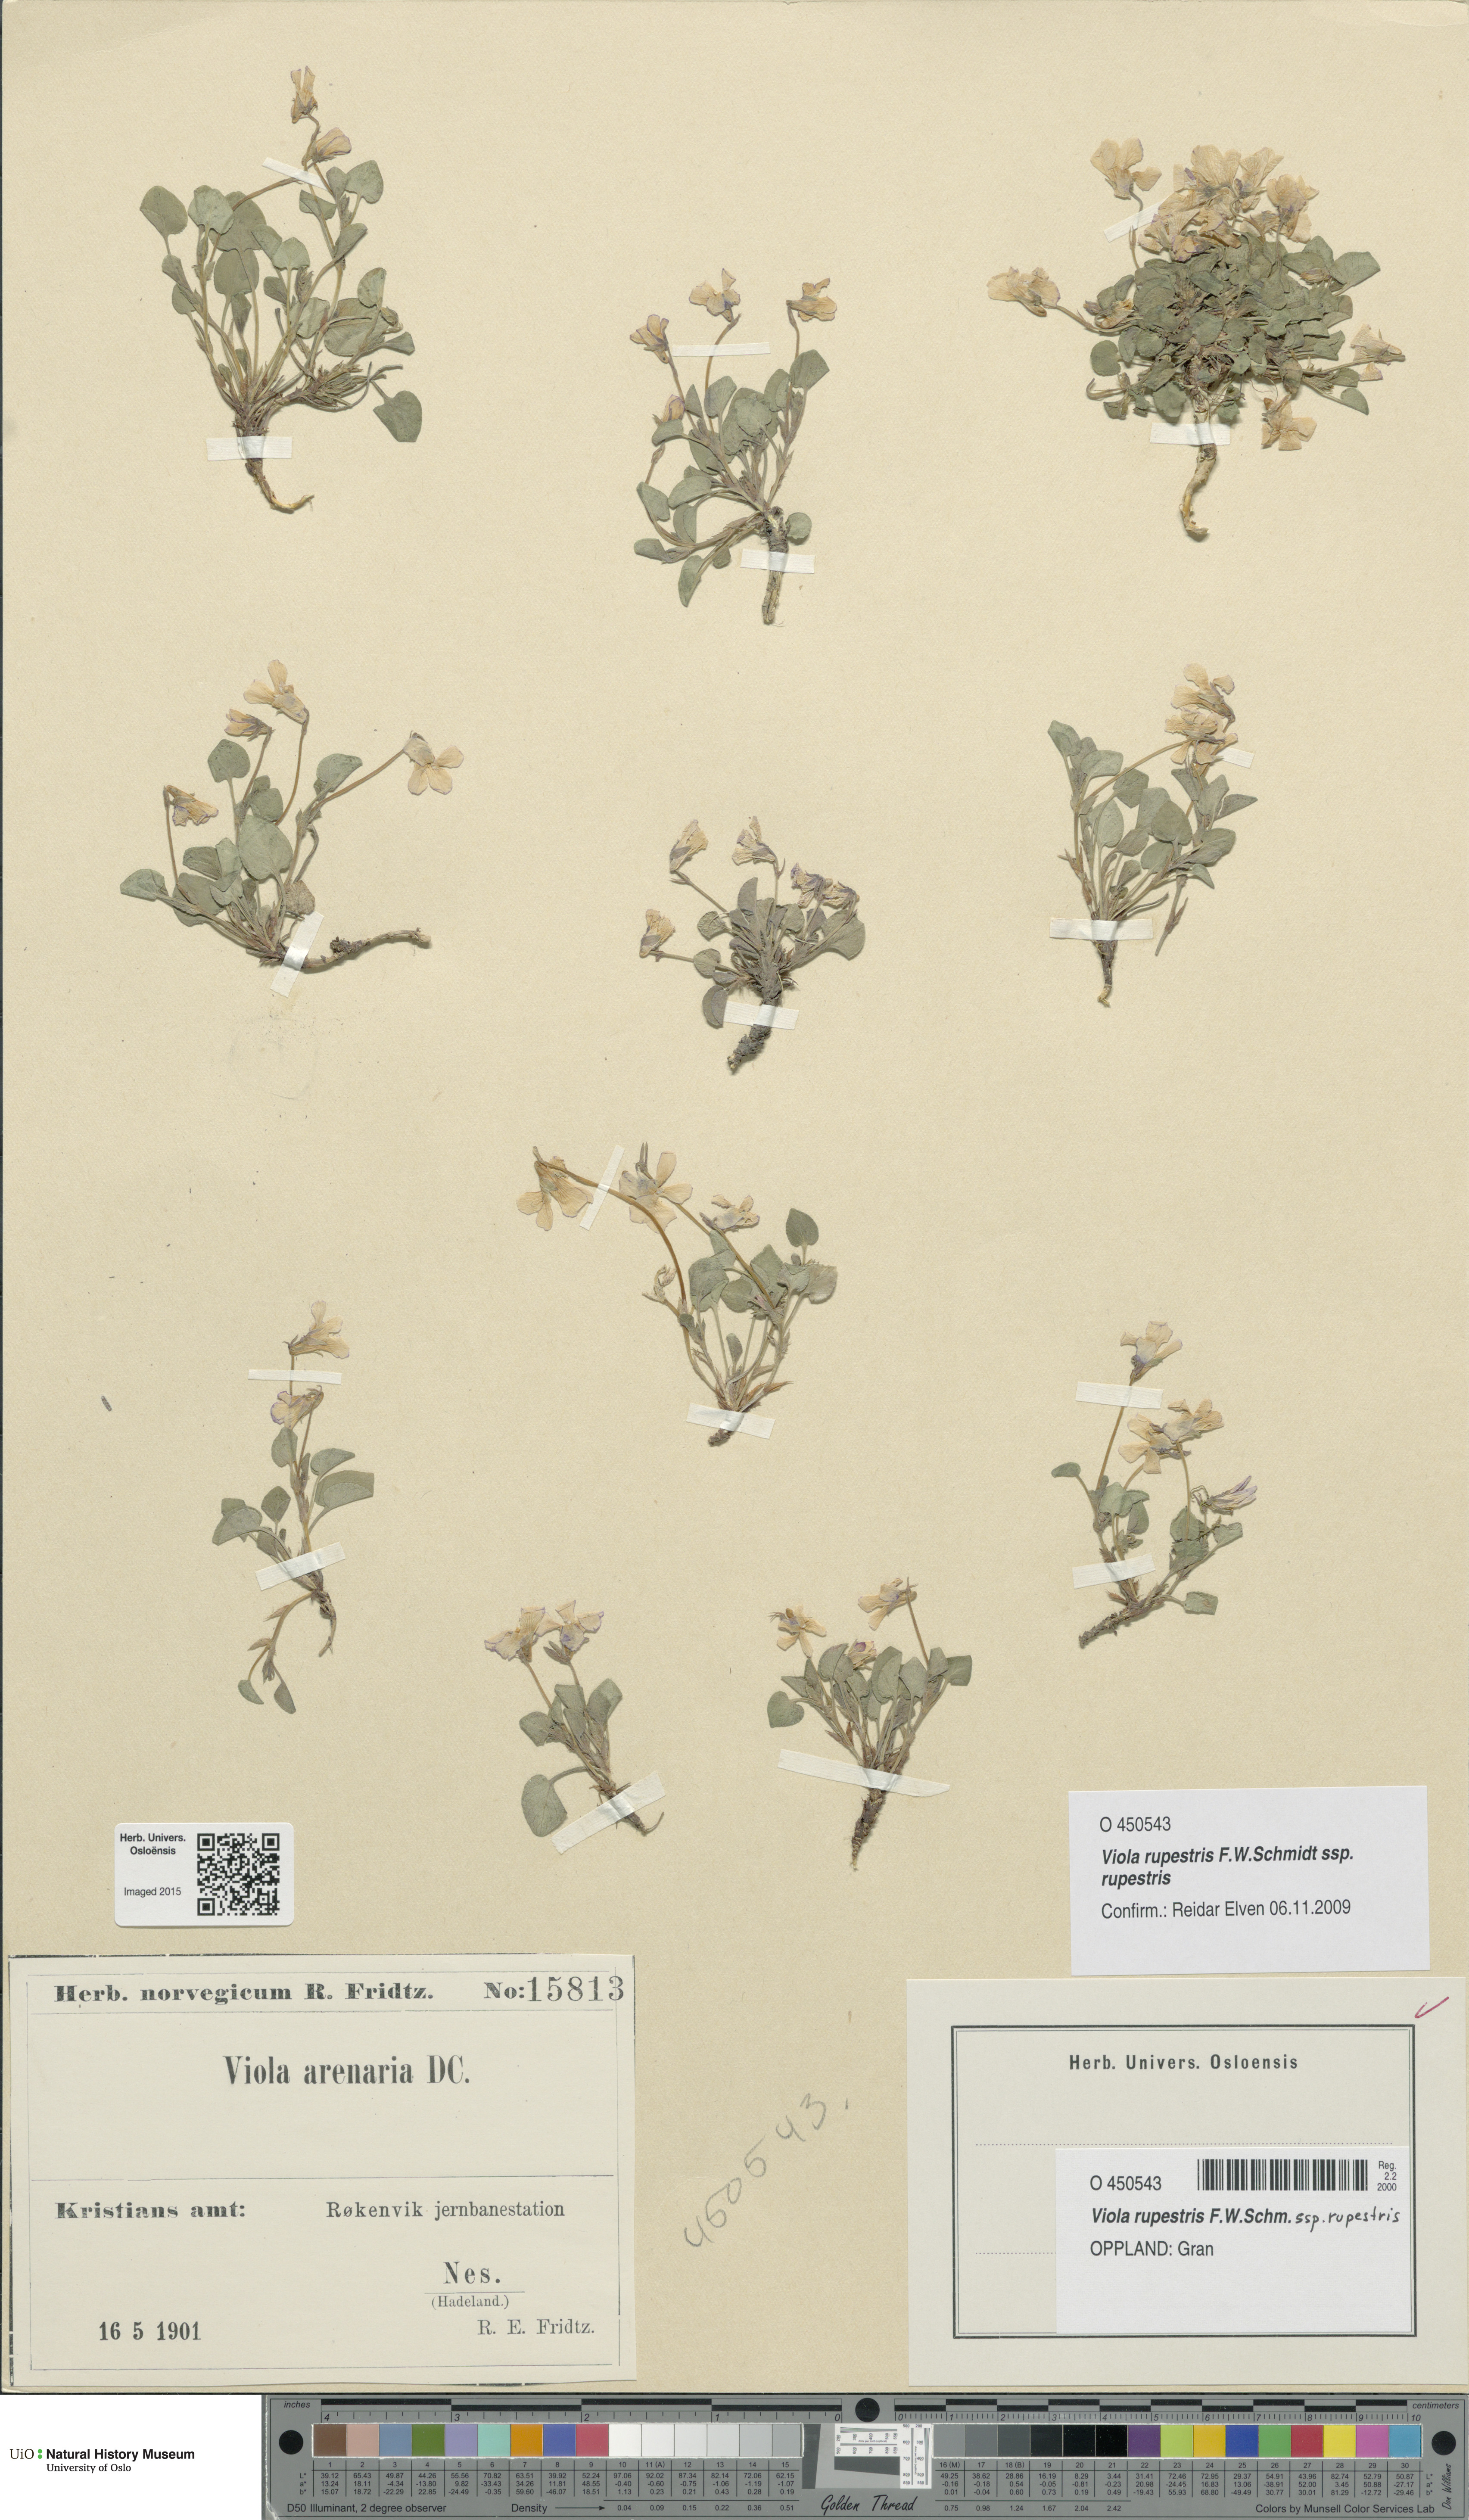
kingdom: Plantae
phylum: Tracheophyta
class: Magnoliopsida
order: Malpighiales
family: Violaceae
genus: Viola
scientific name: Viola rupestris
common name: Teesdale violet
